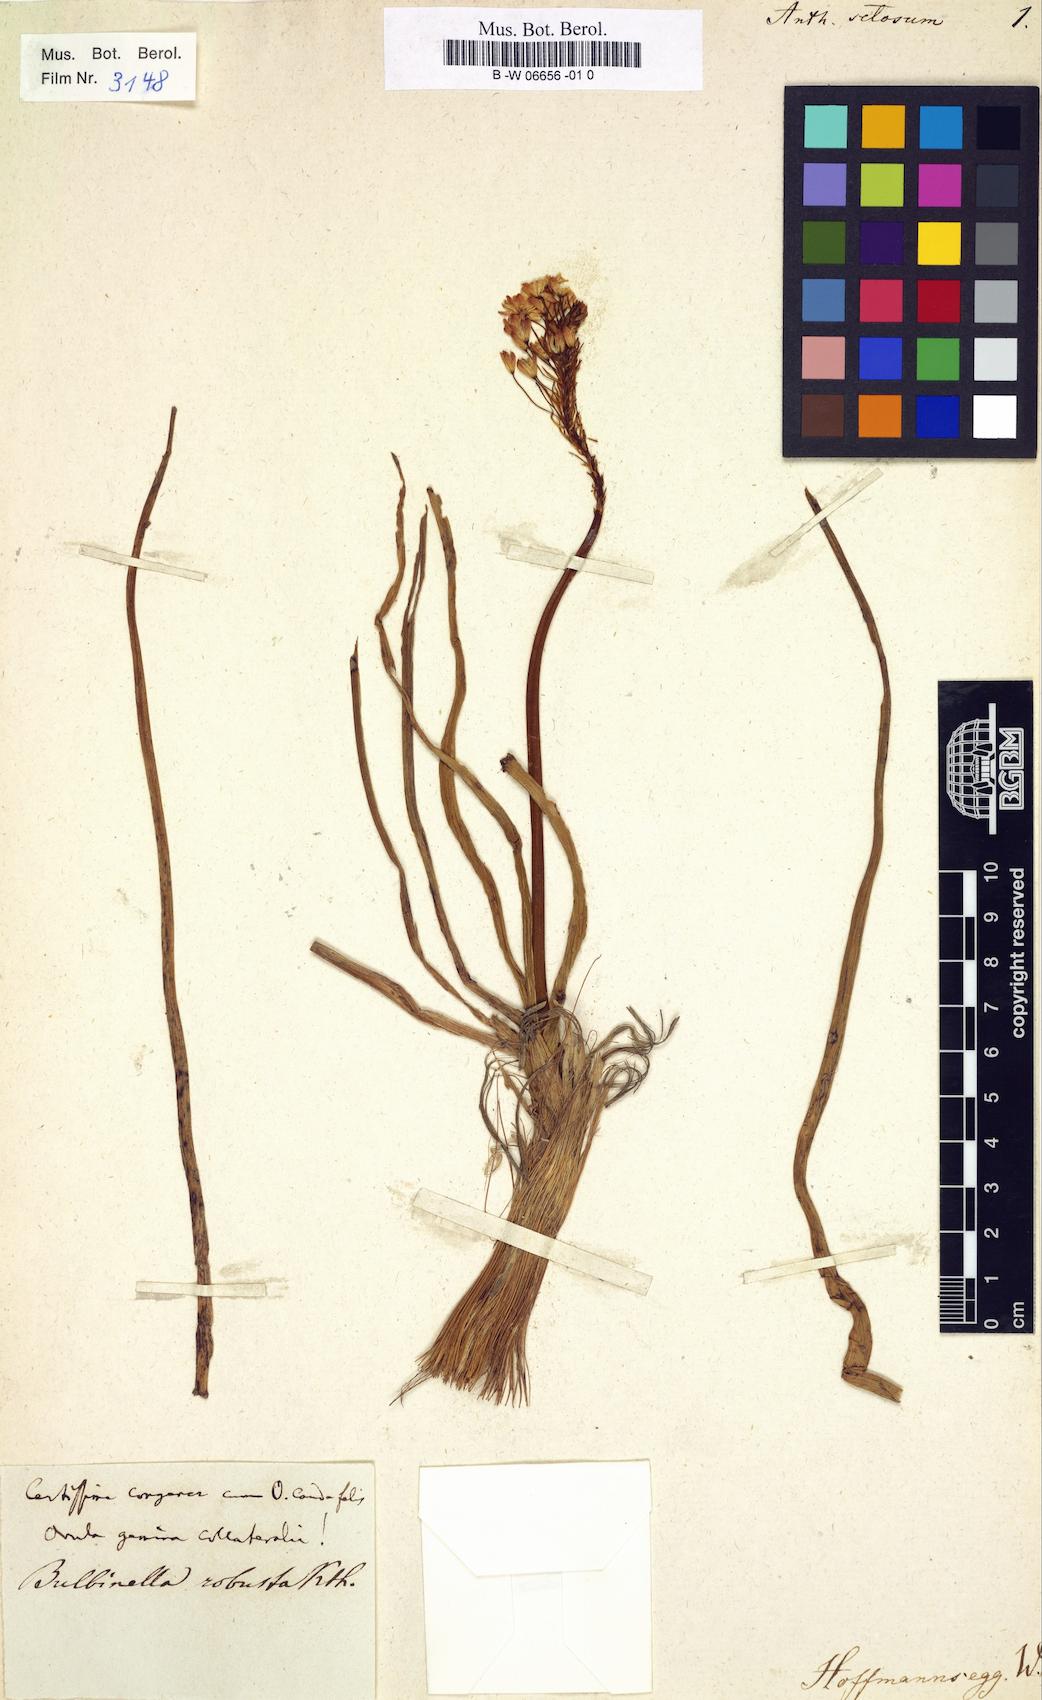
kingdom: Plantae
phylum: Tracheophyta
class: Liliopsida
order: Asparagales
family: Asphodelaceae
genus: Bulbinella
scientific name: Bulbinella nutans
